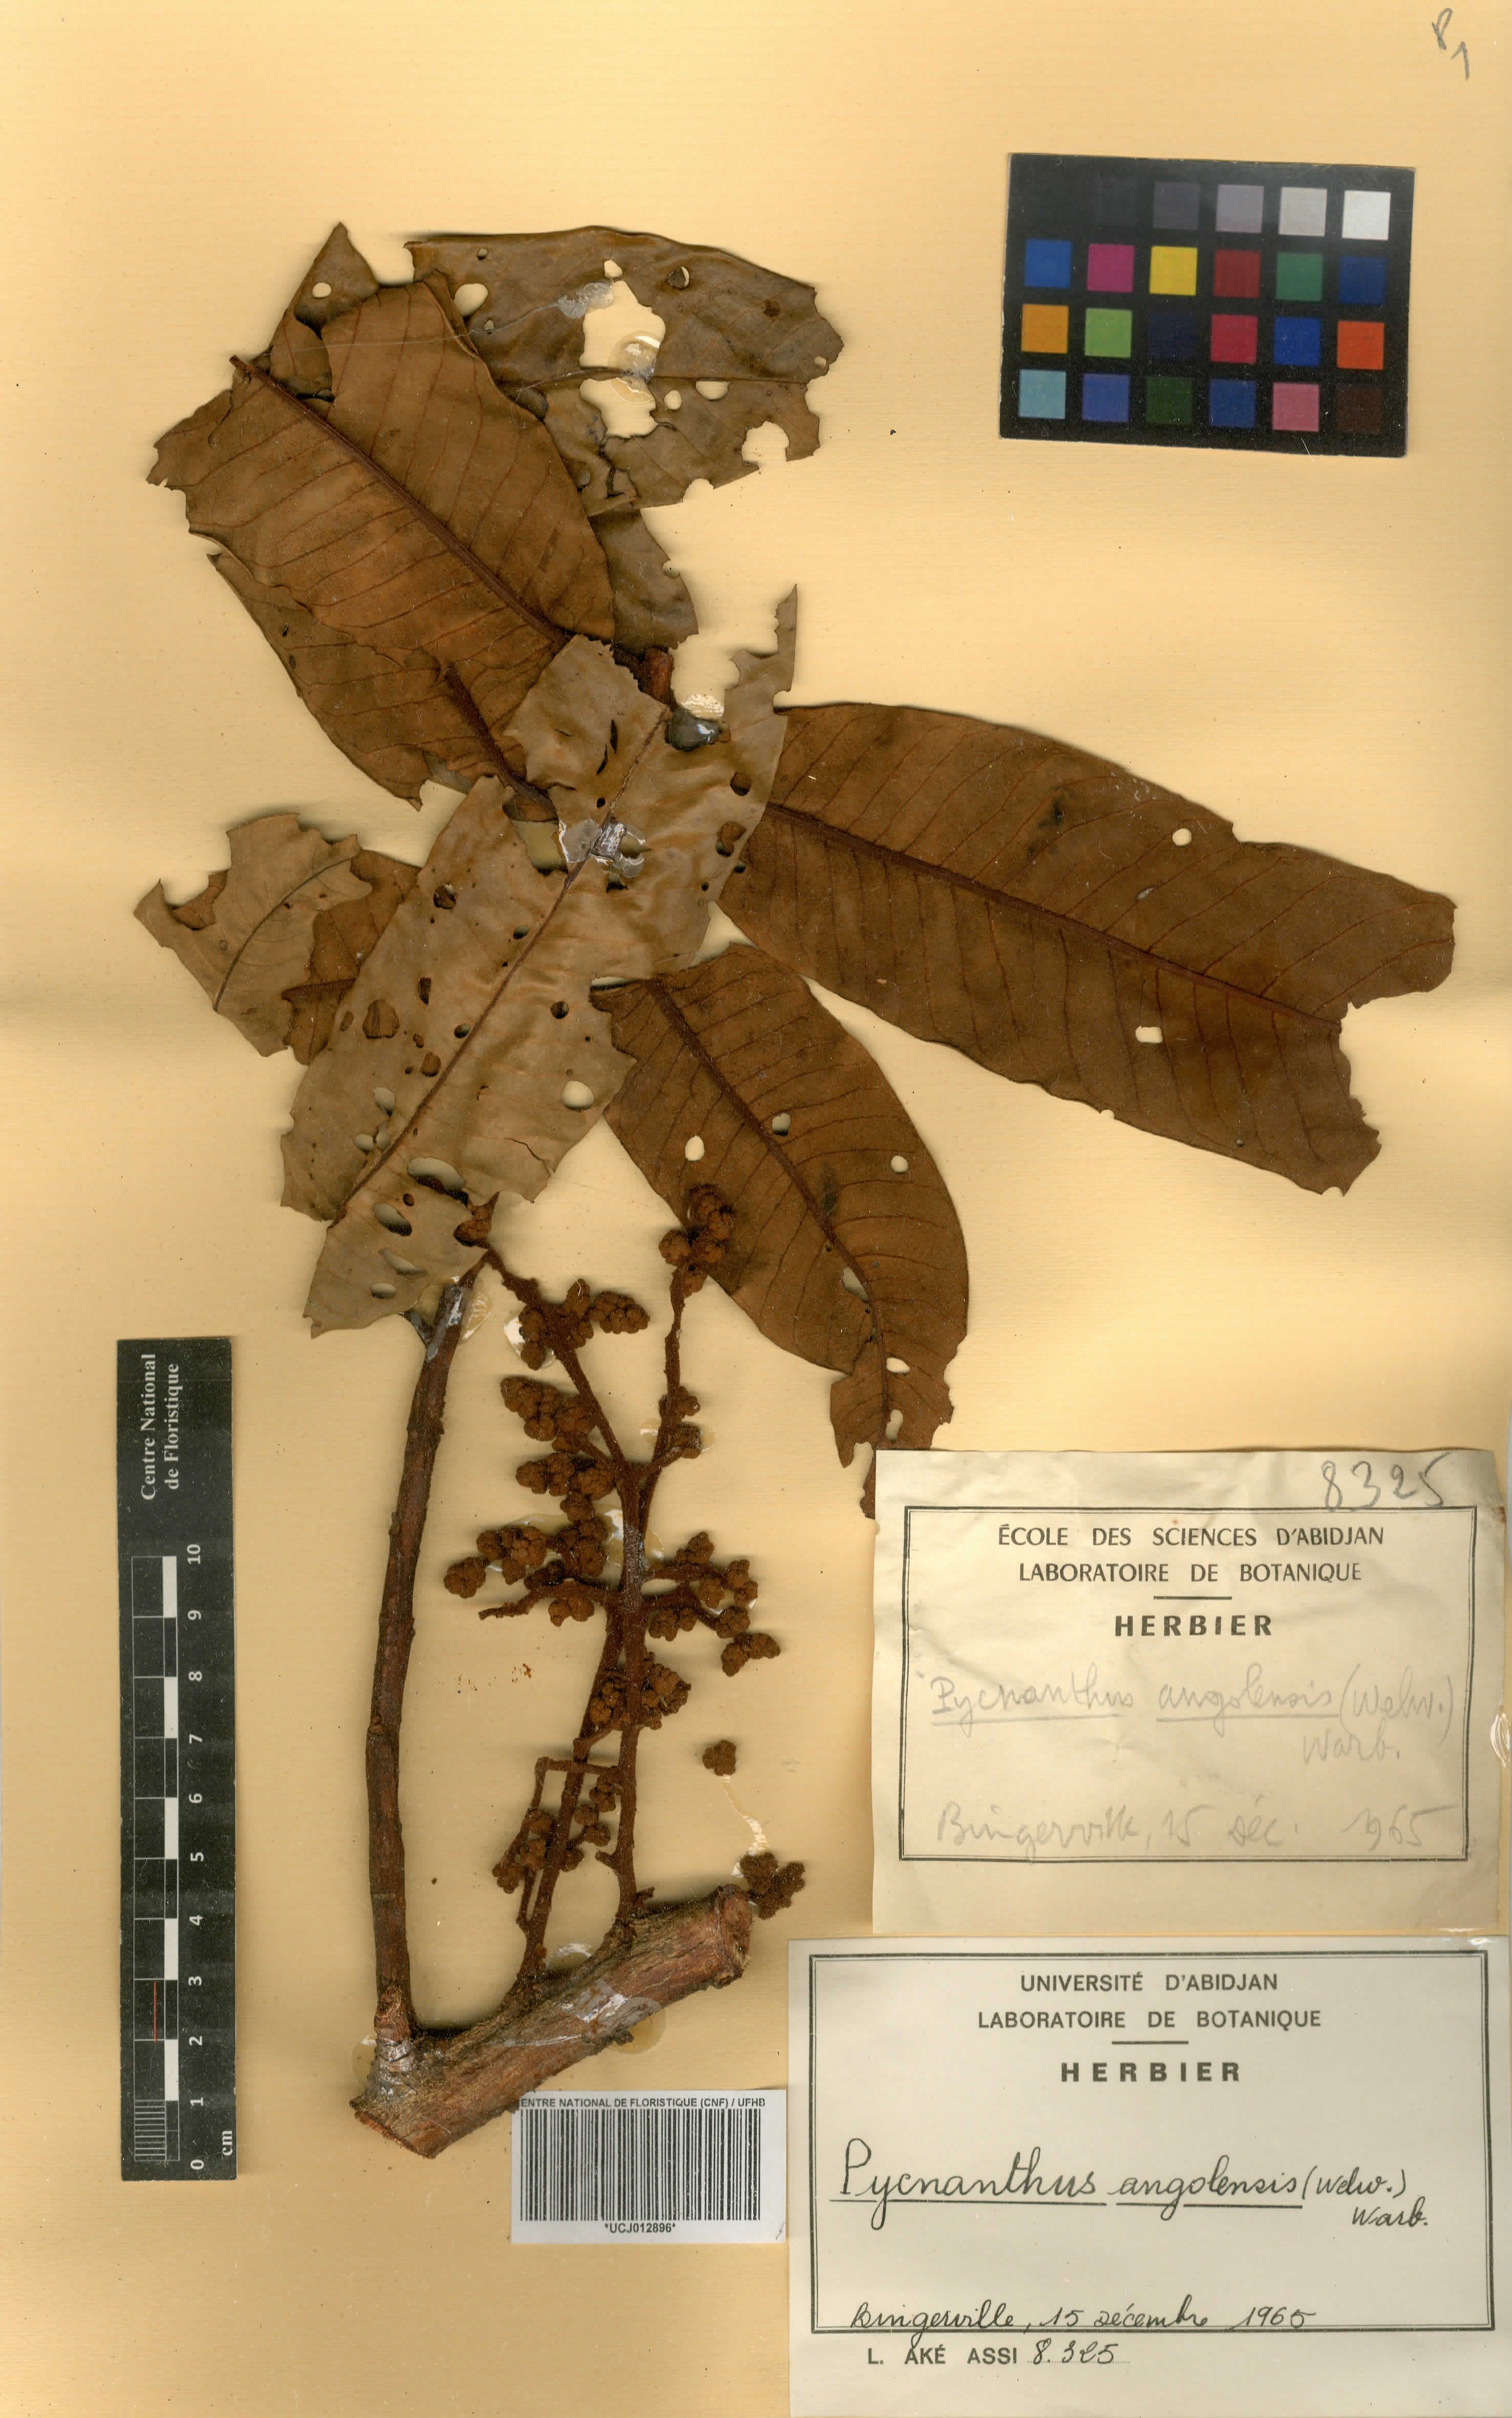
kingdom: Plantae
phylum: Tracheophyta
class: Magnoliopsida
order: Magnoliales
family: Myristicaceae
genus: Pycnanthus
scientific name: Pycnanthus angolensis
